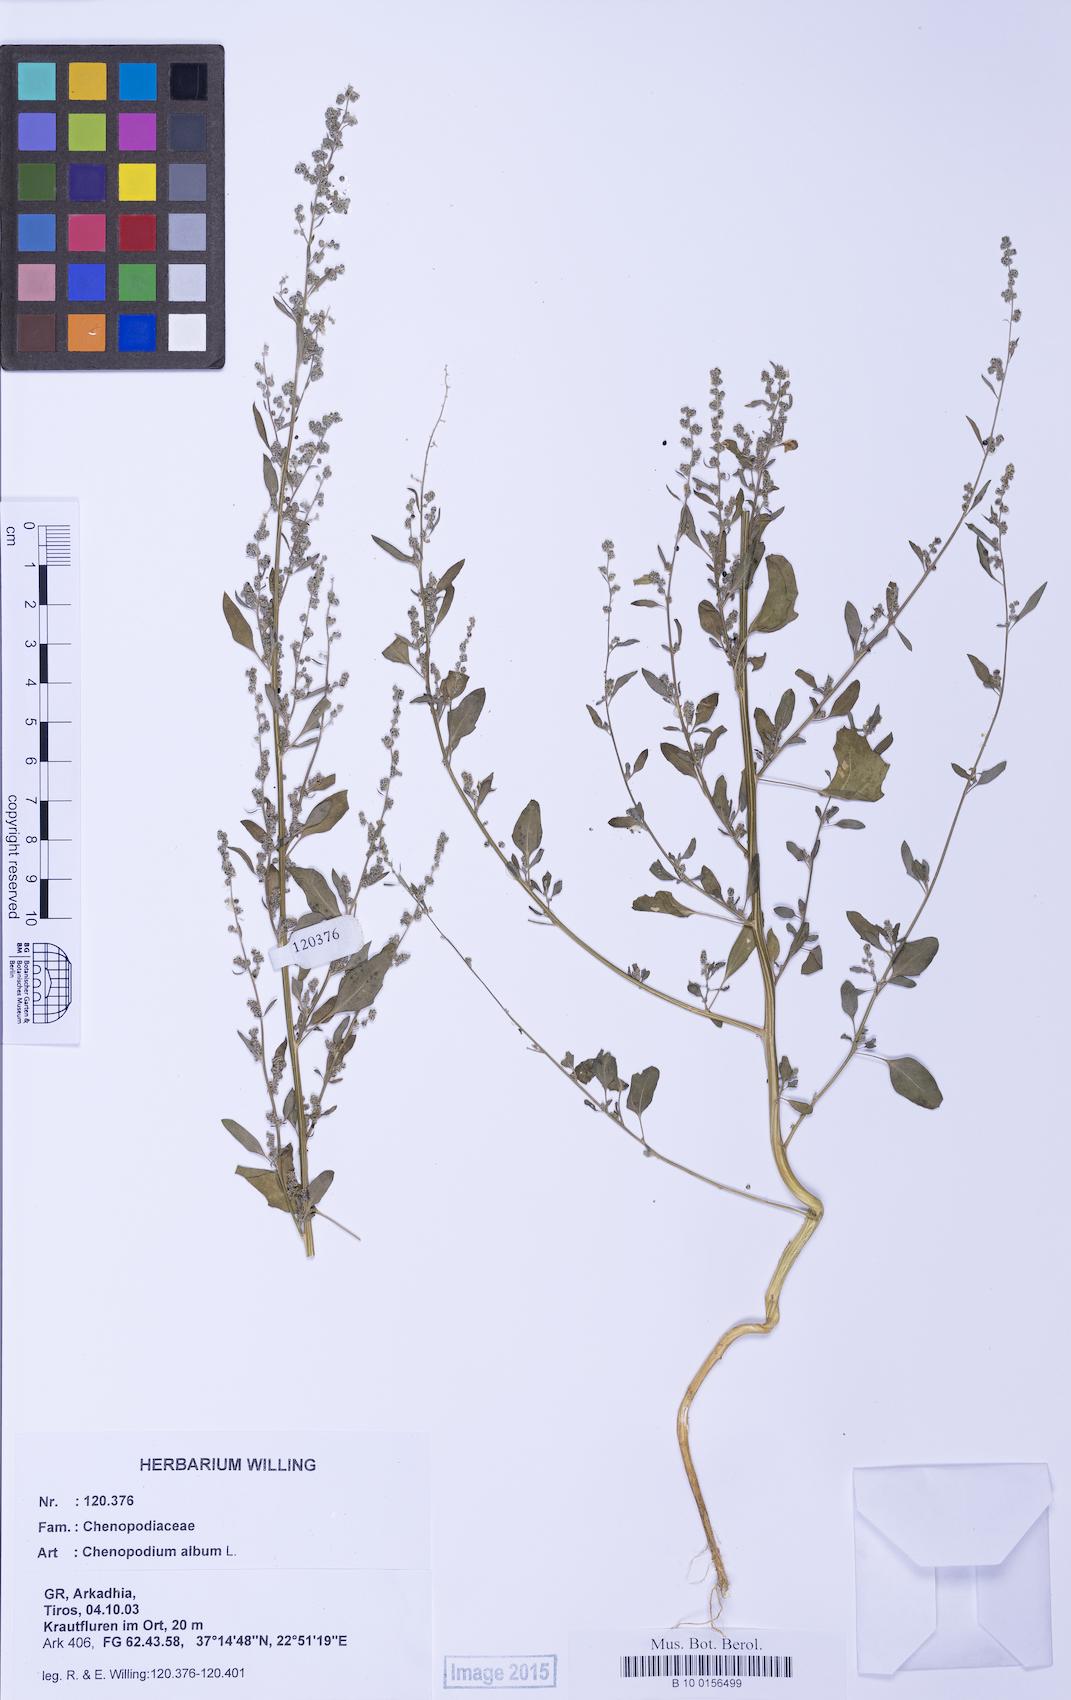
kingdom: Plantae
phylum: Tracheophyta
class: Magnoliopsida
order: Caryophyllales
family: Amaranthaceae
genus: Chenopodium
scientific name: Chenopodium striatiforme
